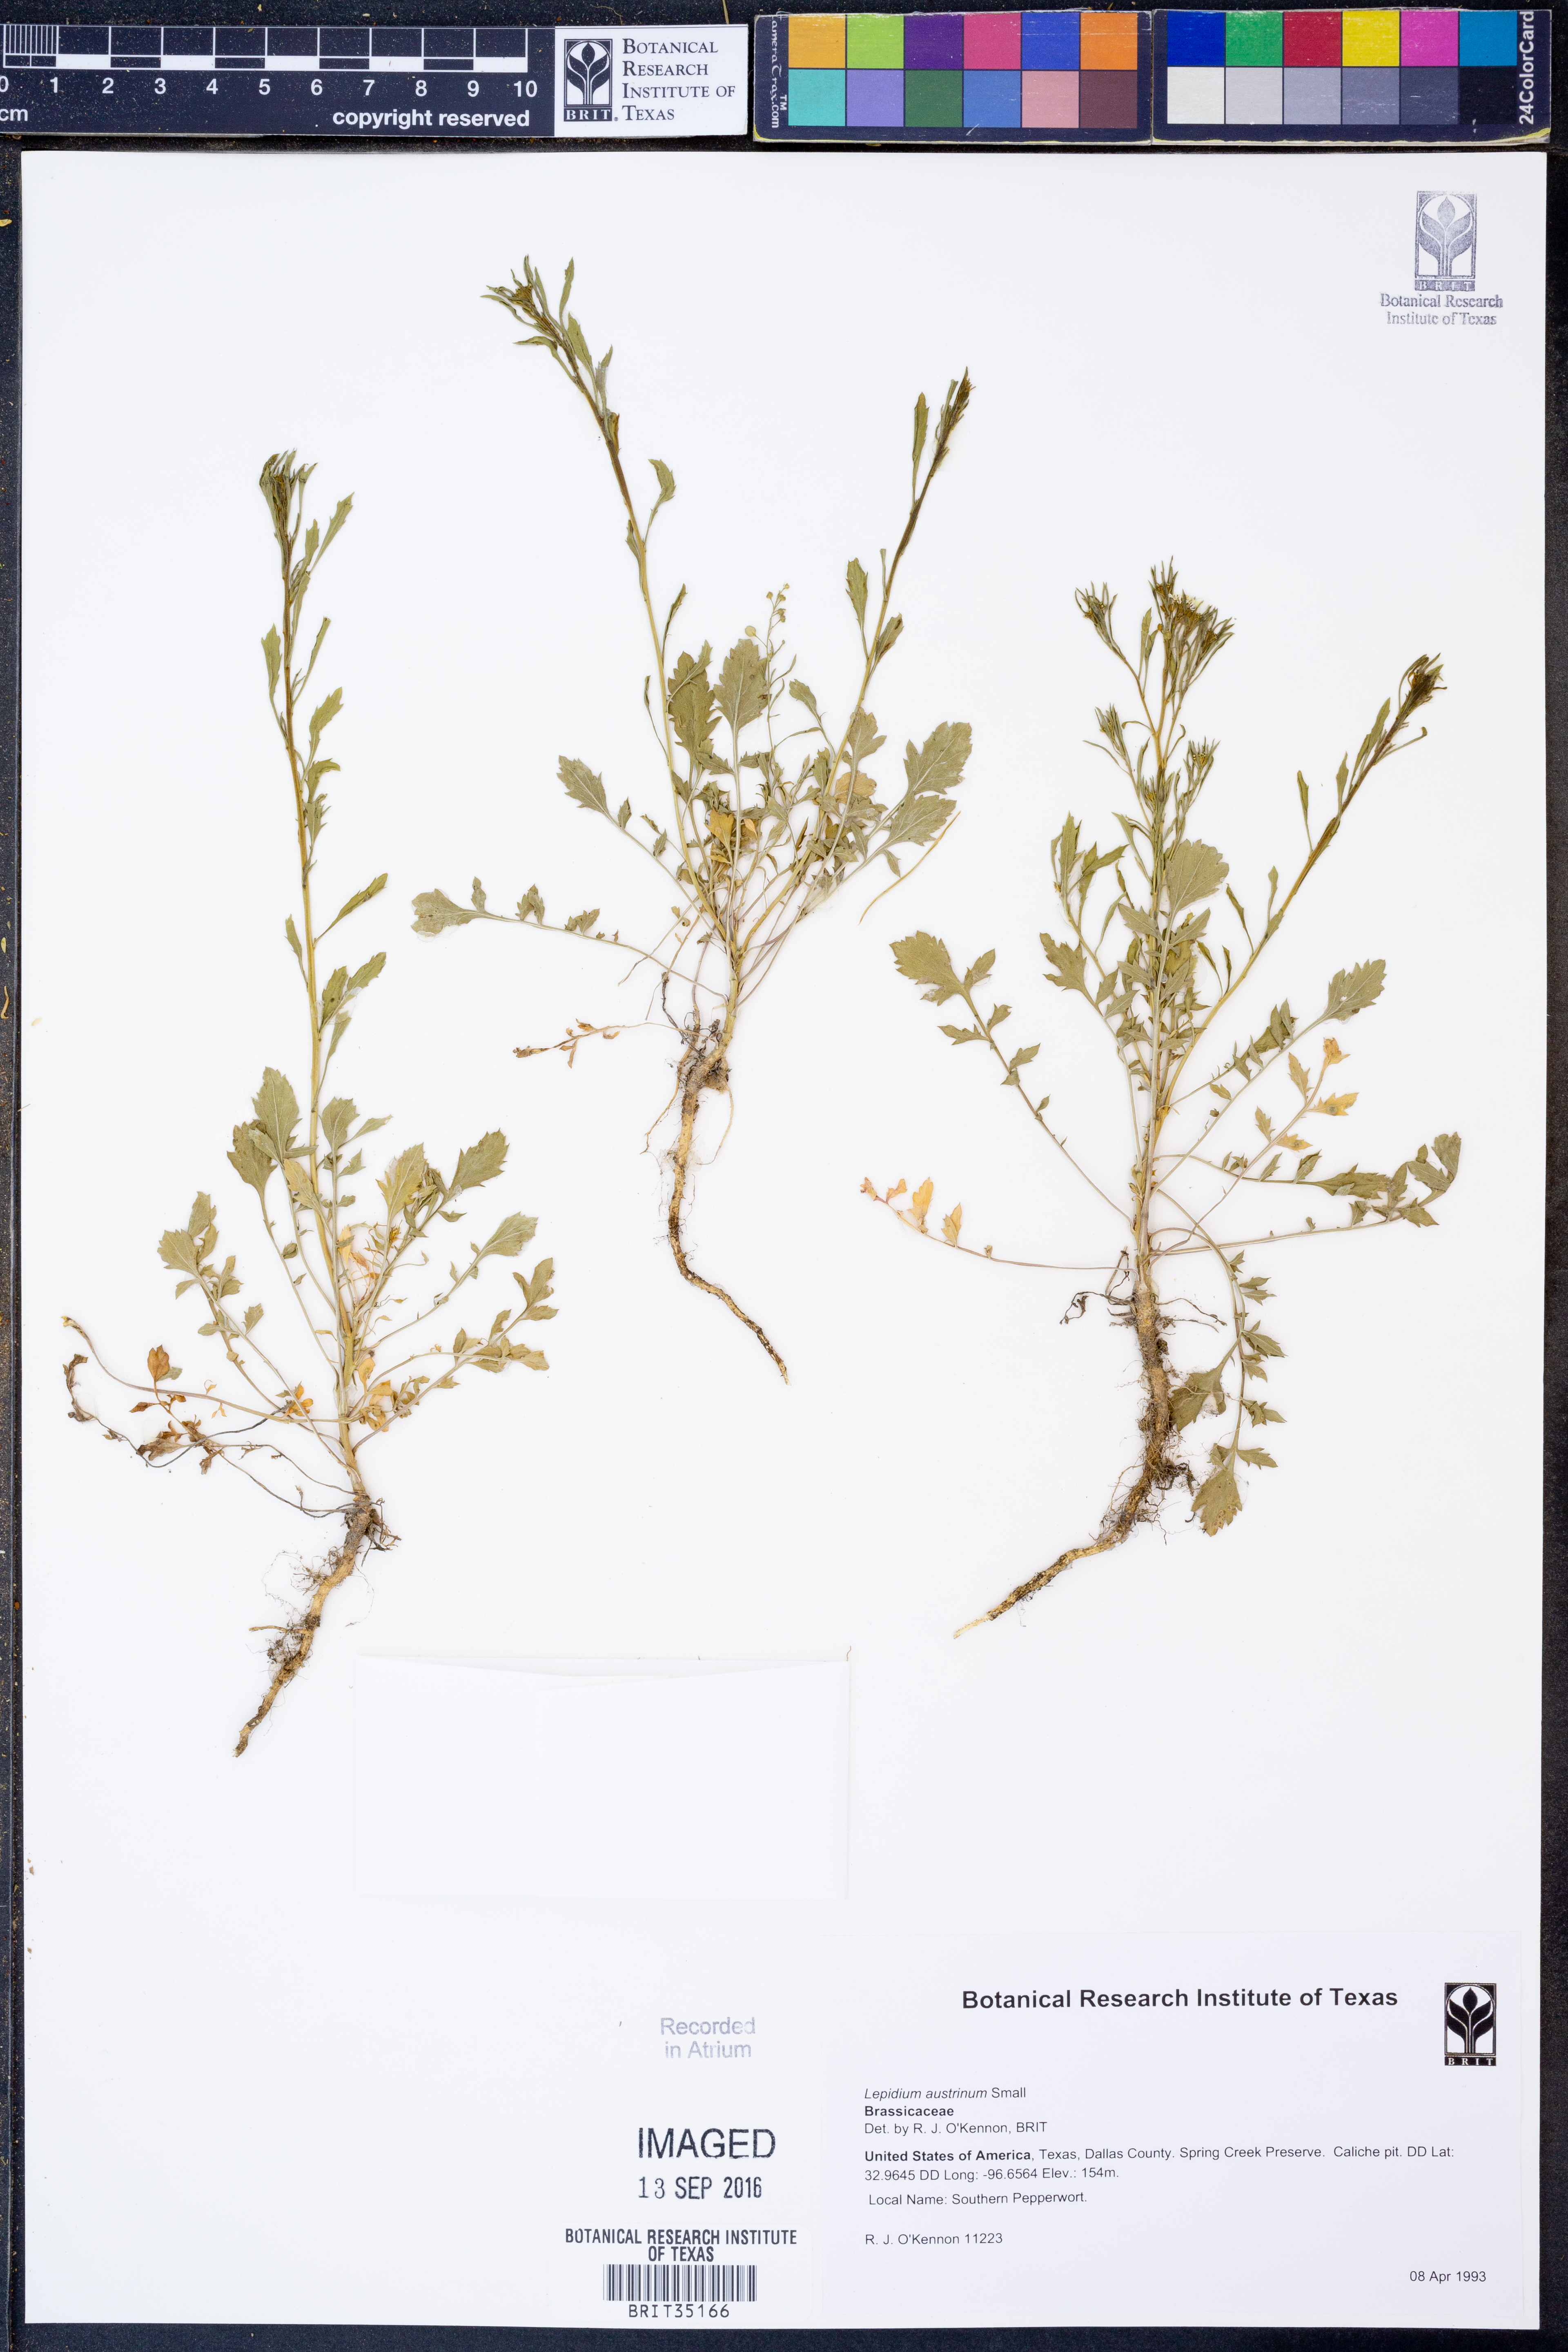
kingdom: Plantae
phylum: Tracheophyta
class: Magnoliopsida
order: Brassicales
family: Brassicaceae
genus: Lepidium
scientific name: Lepidium austrinum
